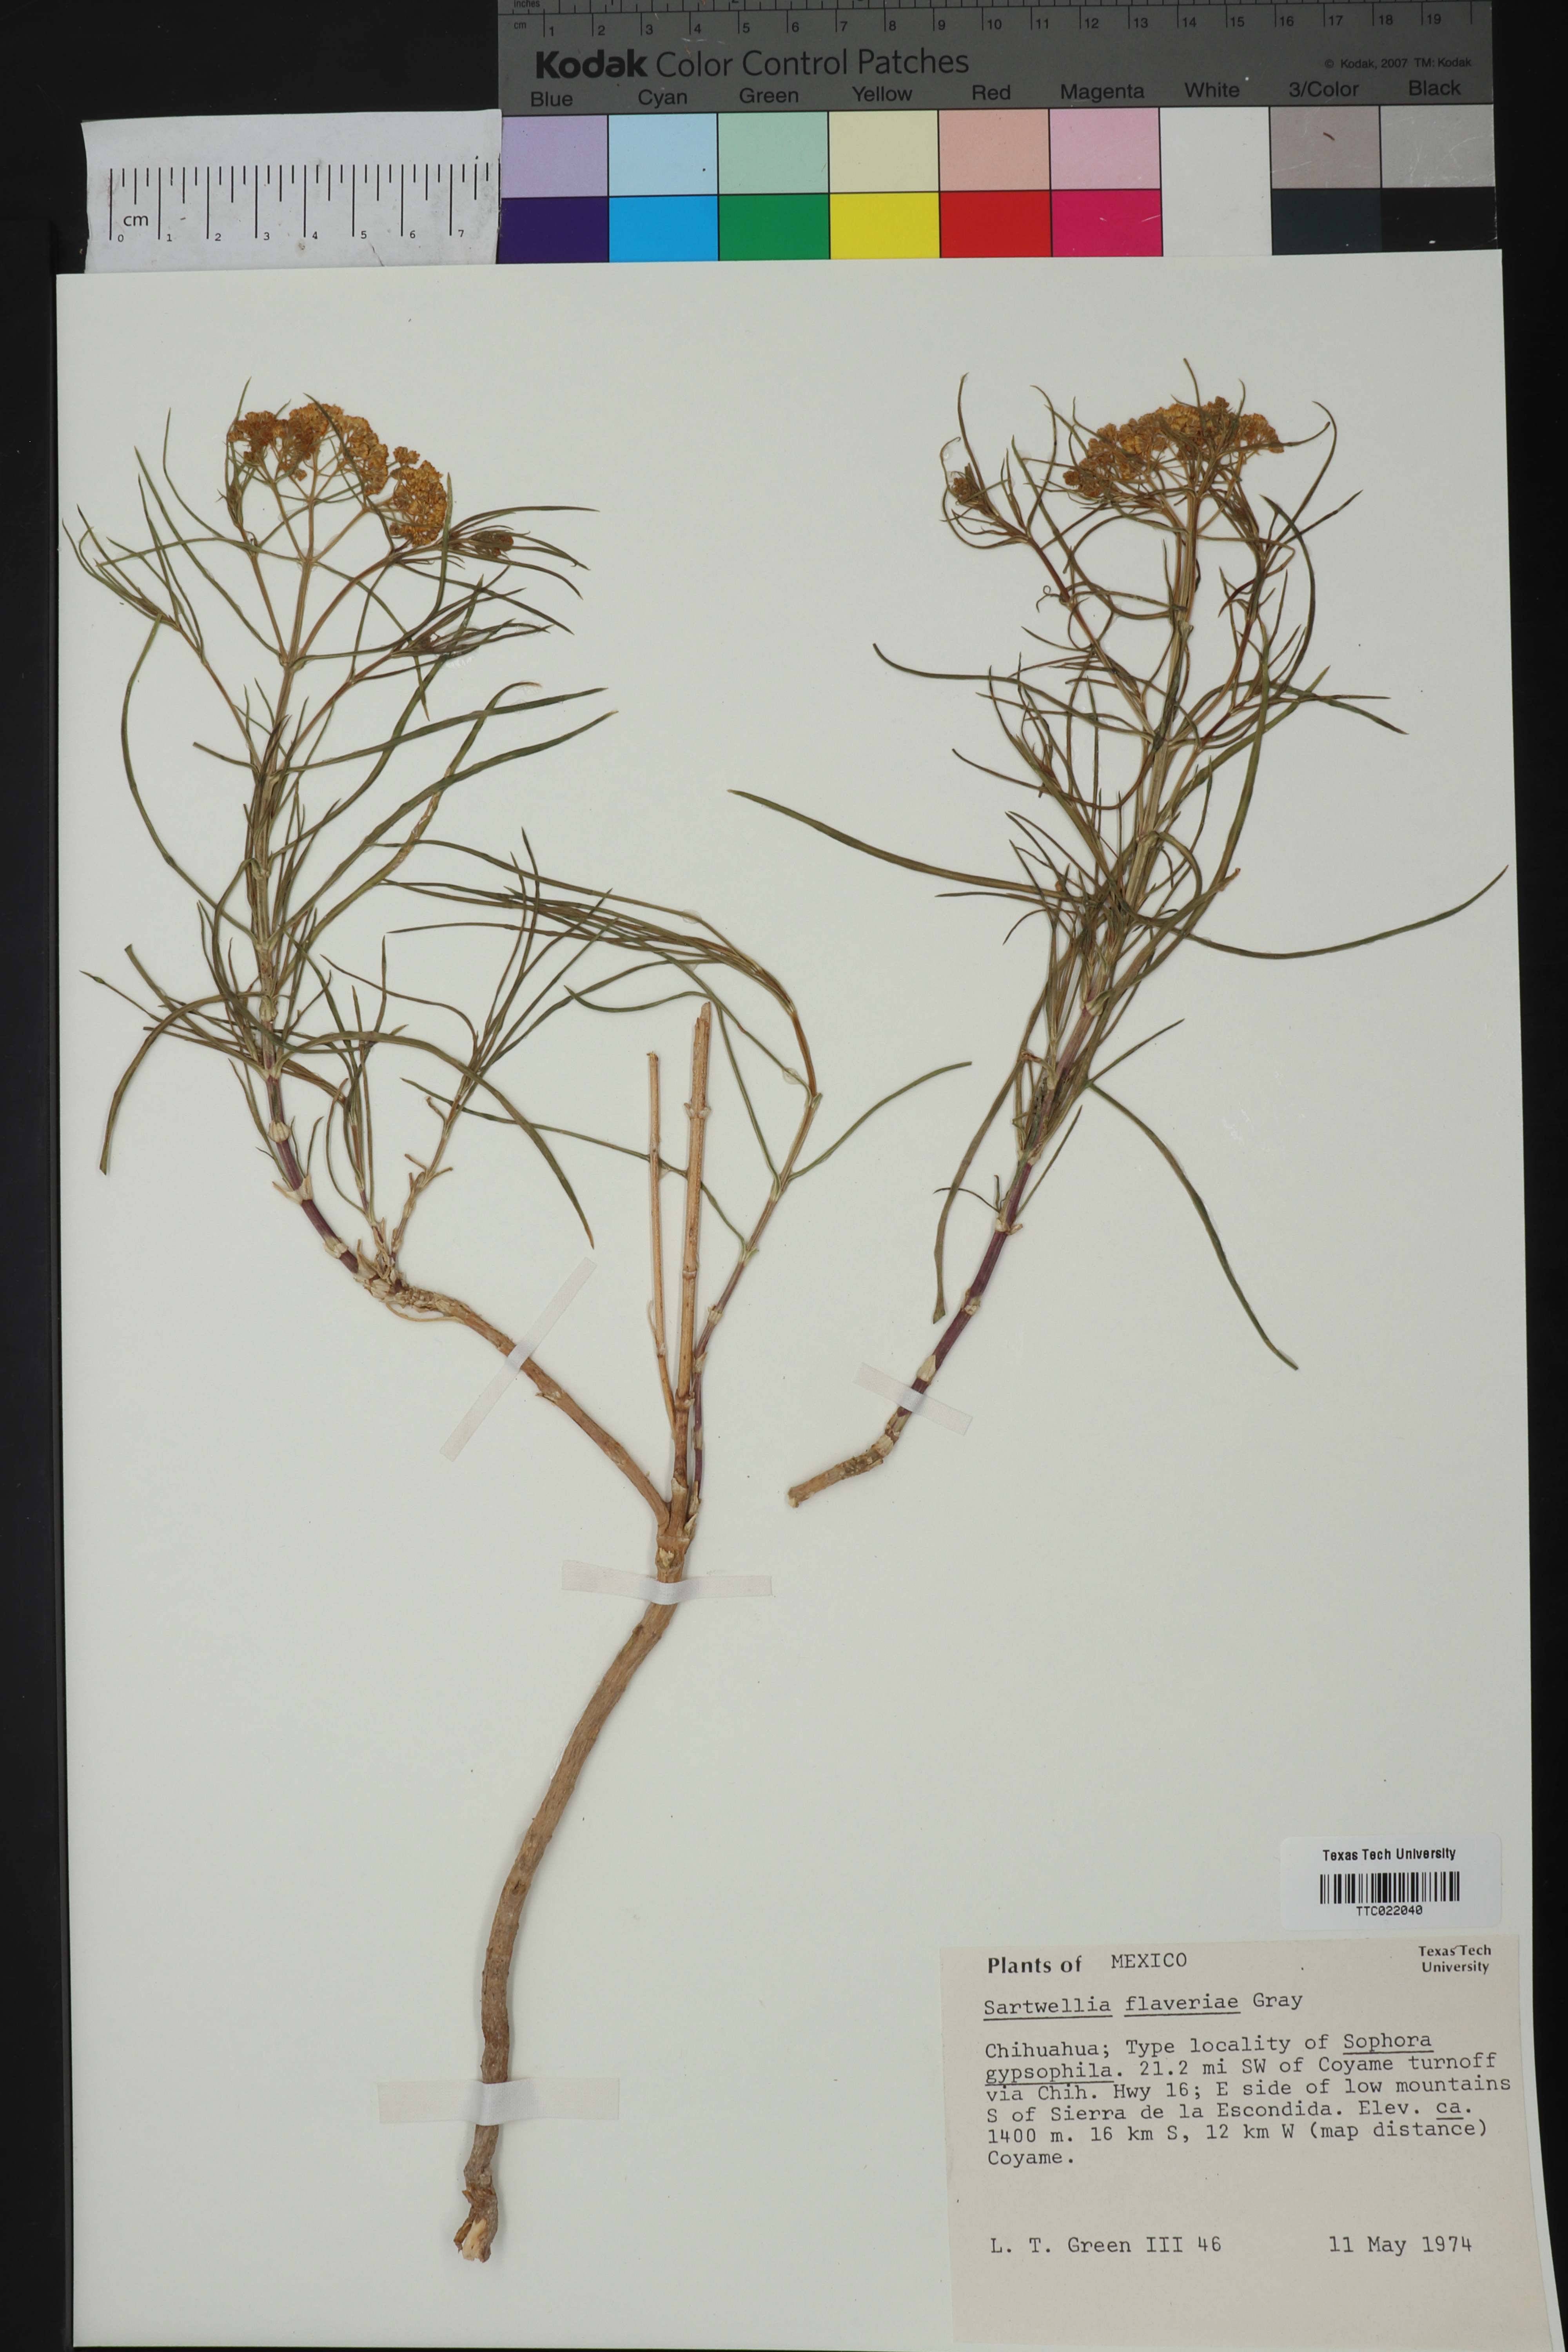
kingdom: Plantae
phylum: Tracheophyta
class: Magnoliopsida
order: Asterales
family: Asteraceae
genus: Sartwellia
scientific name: Sartwellia flaveriae
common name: Sartwellia
